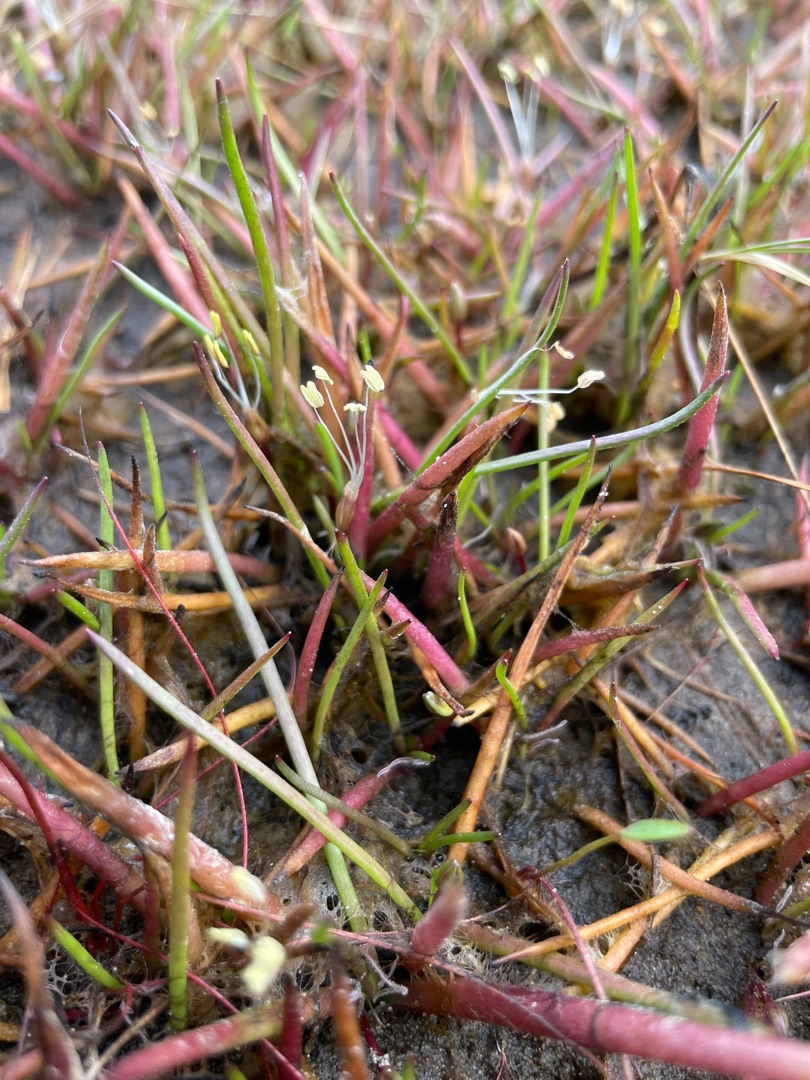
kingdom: Plantae
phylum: Tracheophyta
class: Magnoliopsida
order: Lamiales
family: Plantaginaceae
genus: Littorella
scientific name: Littorella uniflora
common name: Strandbo
